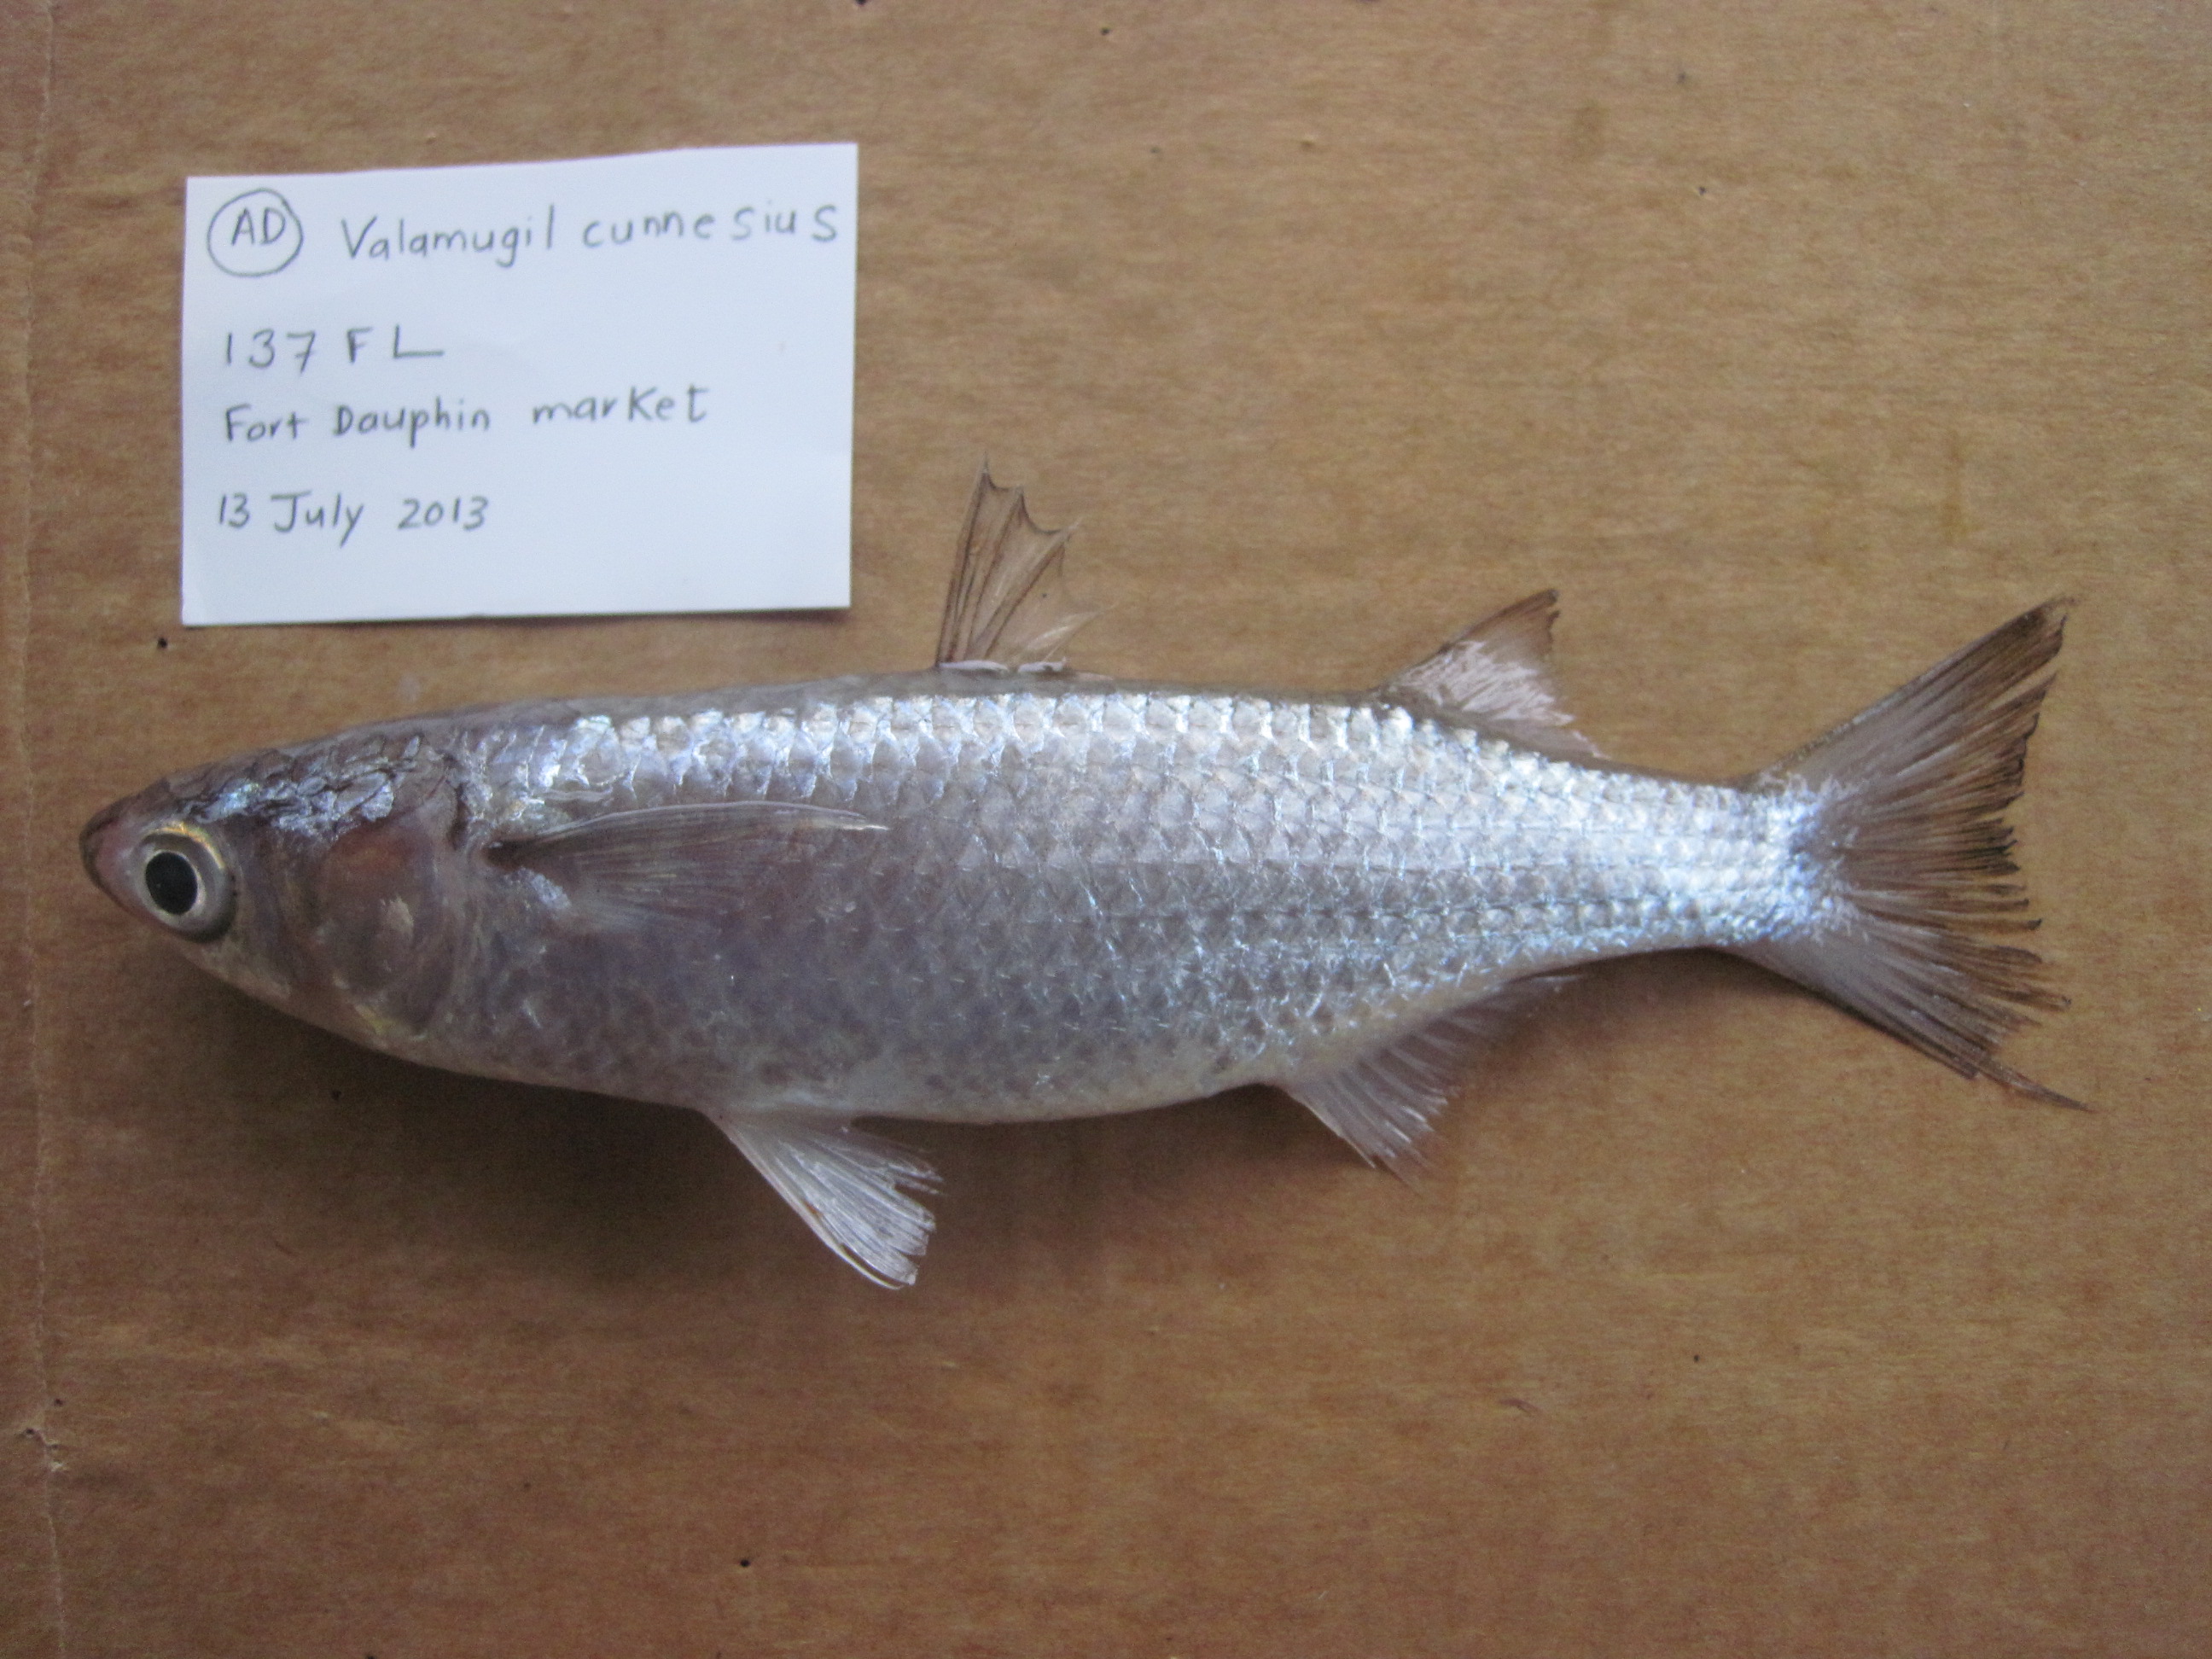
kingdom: Animalia
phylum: Chordata
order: Mugiliformes
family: Mugilidae
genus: Osteomugil
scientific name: Osteomugil cunnesius
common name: Longarm mullet
